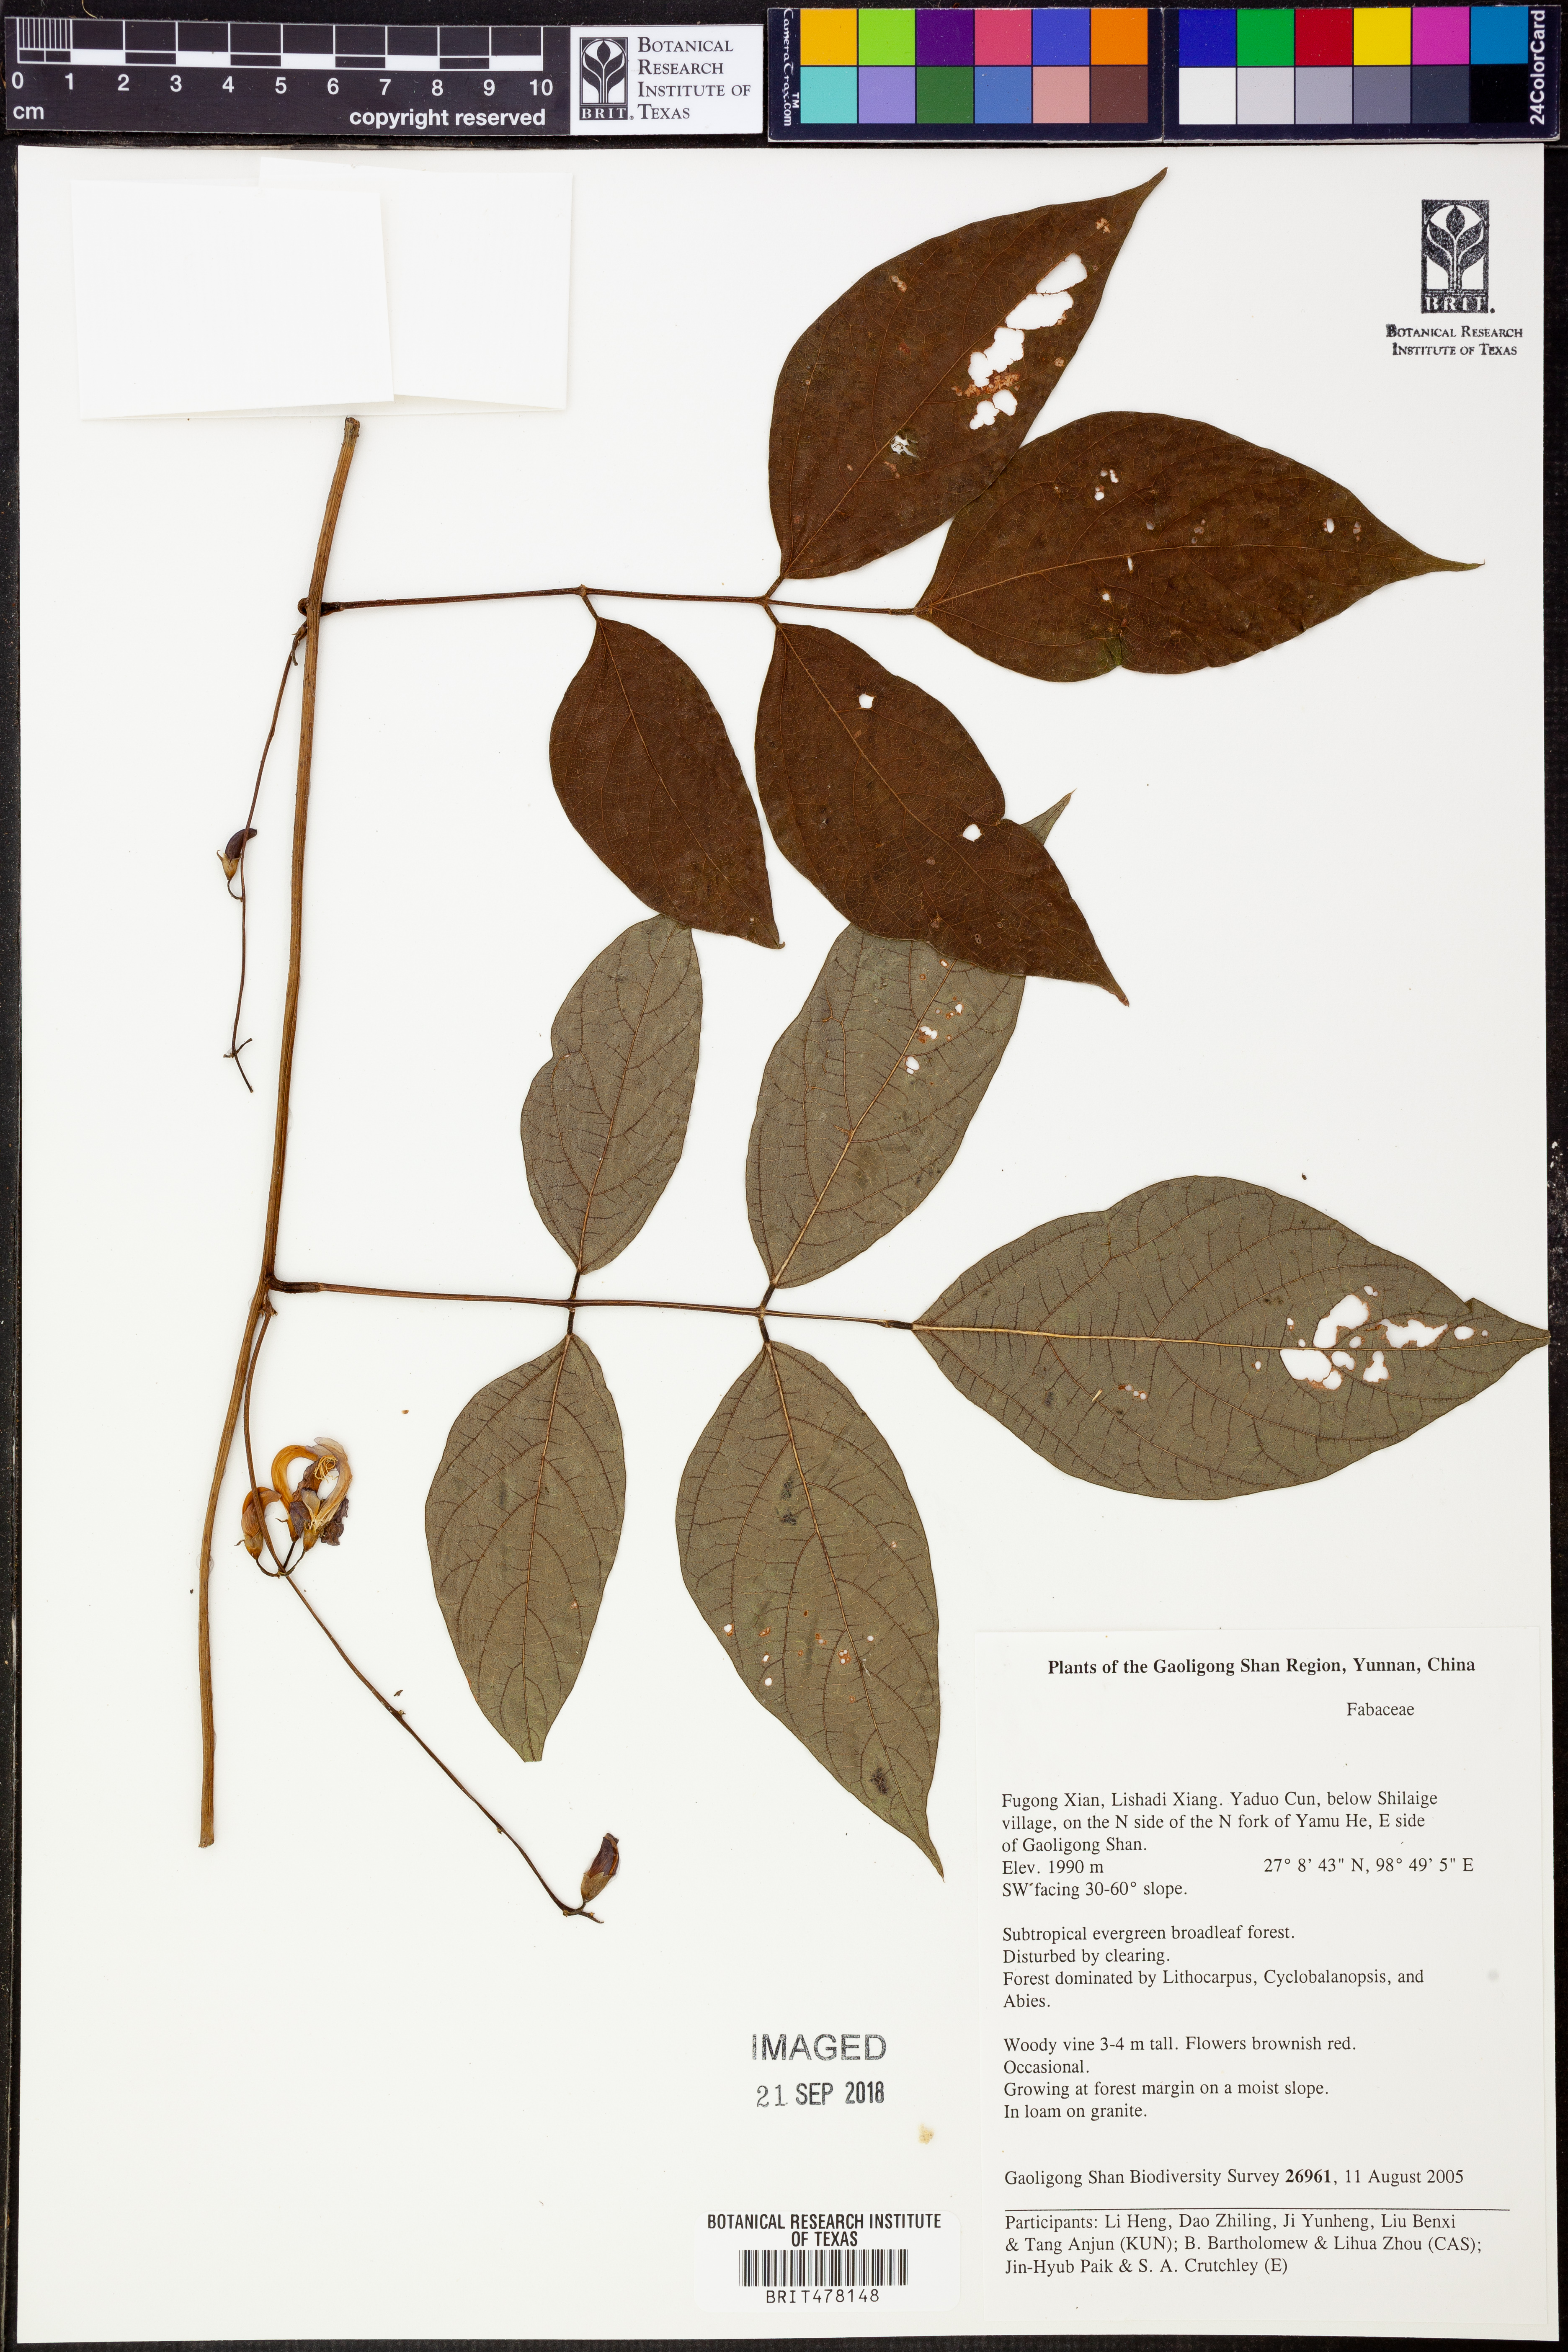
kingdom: Plantae
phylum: Tracheophyta
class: Magnoliopsida
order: Fabales
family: Fabaceae
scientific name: Fabaceae
